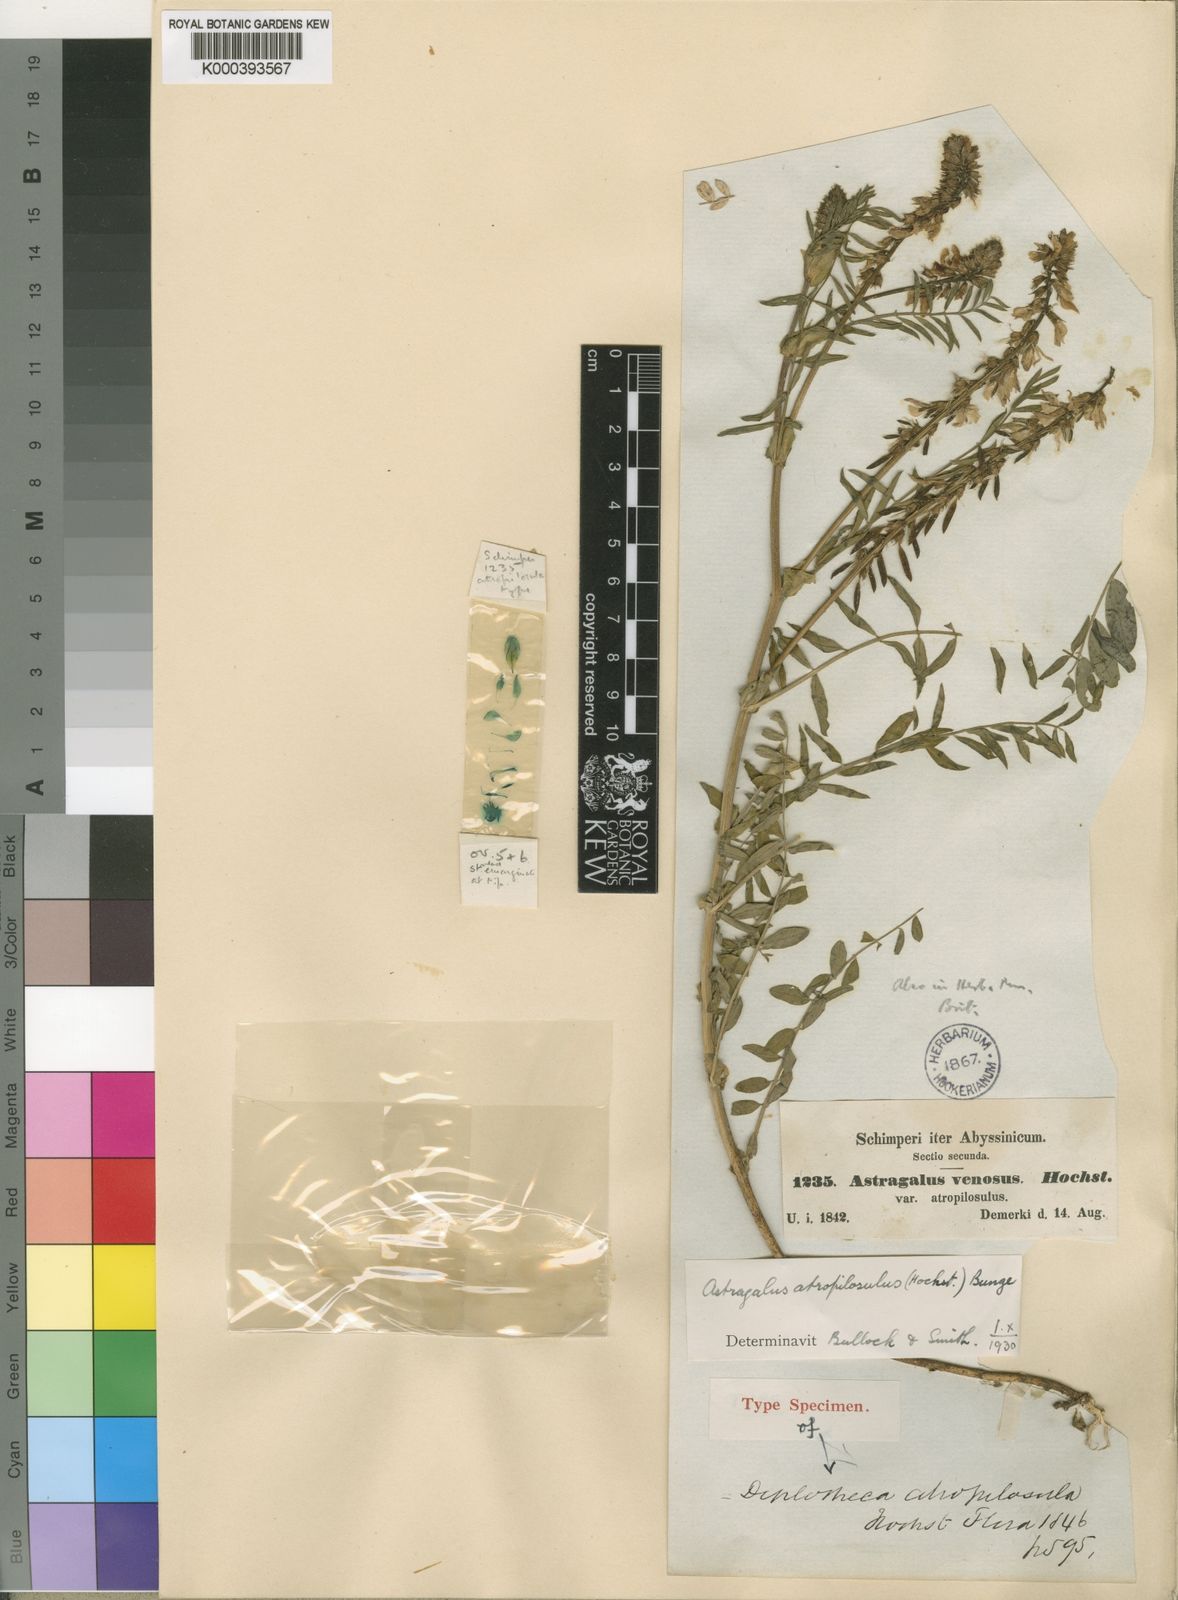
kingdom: Plantae
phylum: Tracheophyta
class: Magnoliopsida
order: Fabales
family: Fabaceae
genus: Astragalus
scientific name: Astragalus atropilosulus
